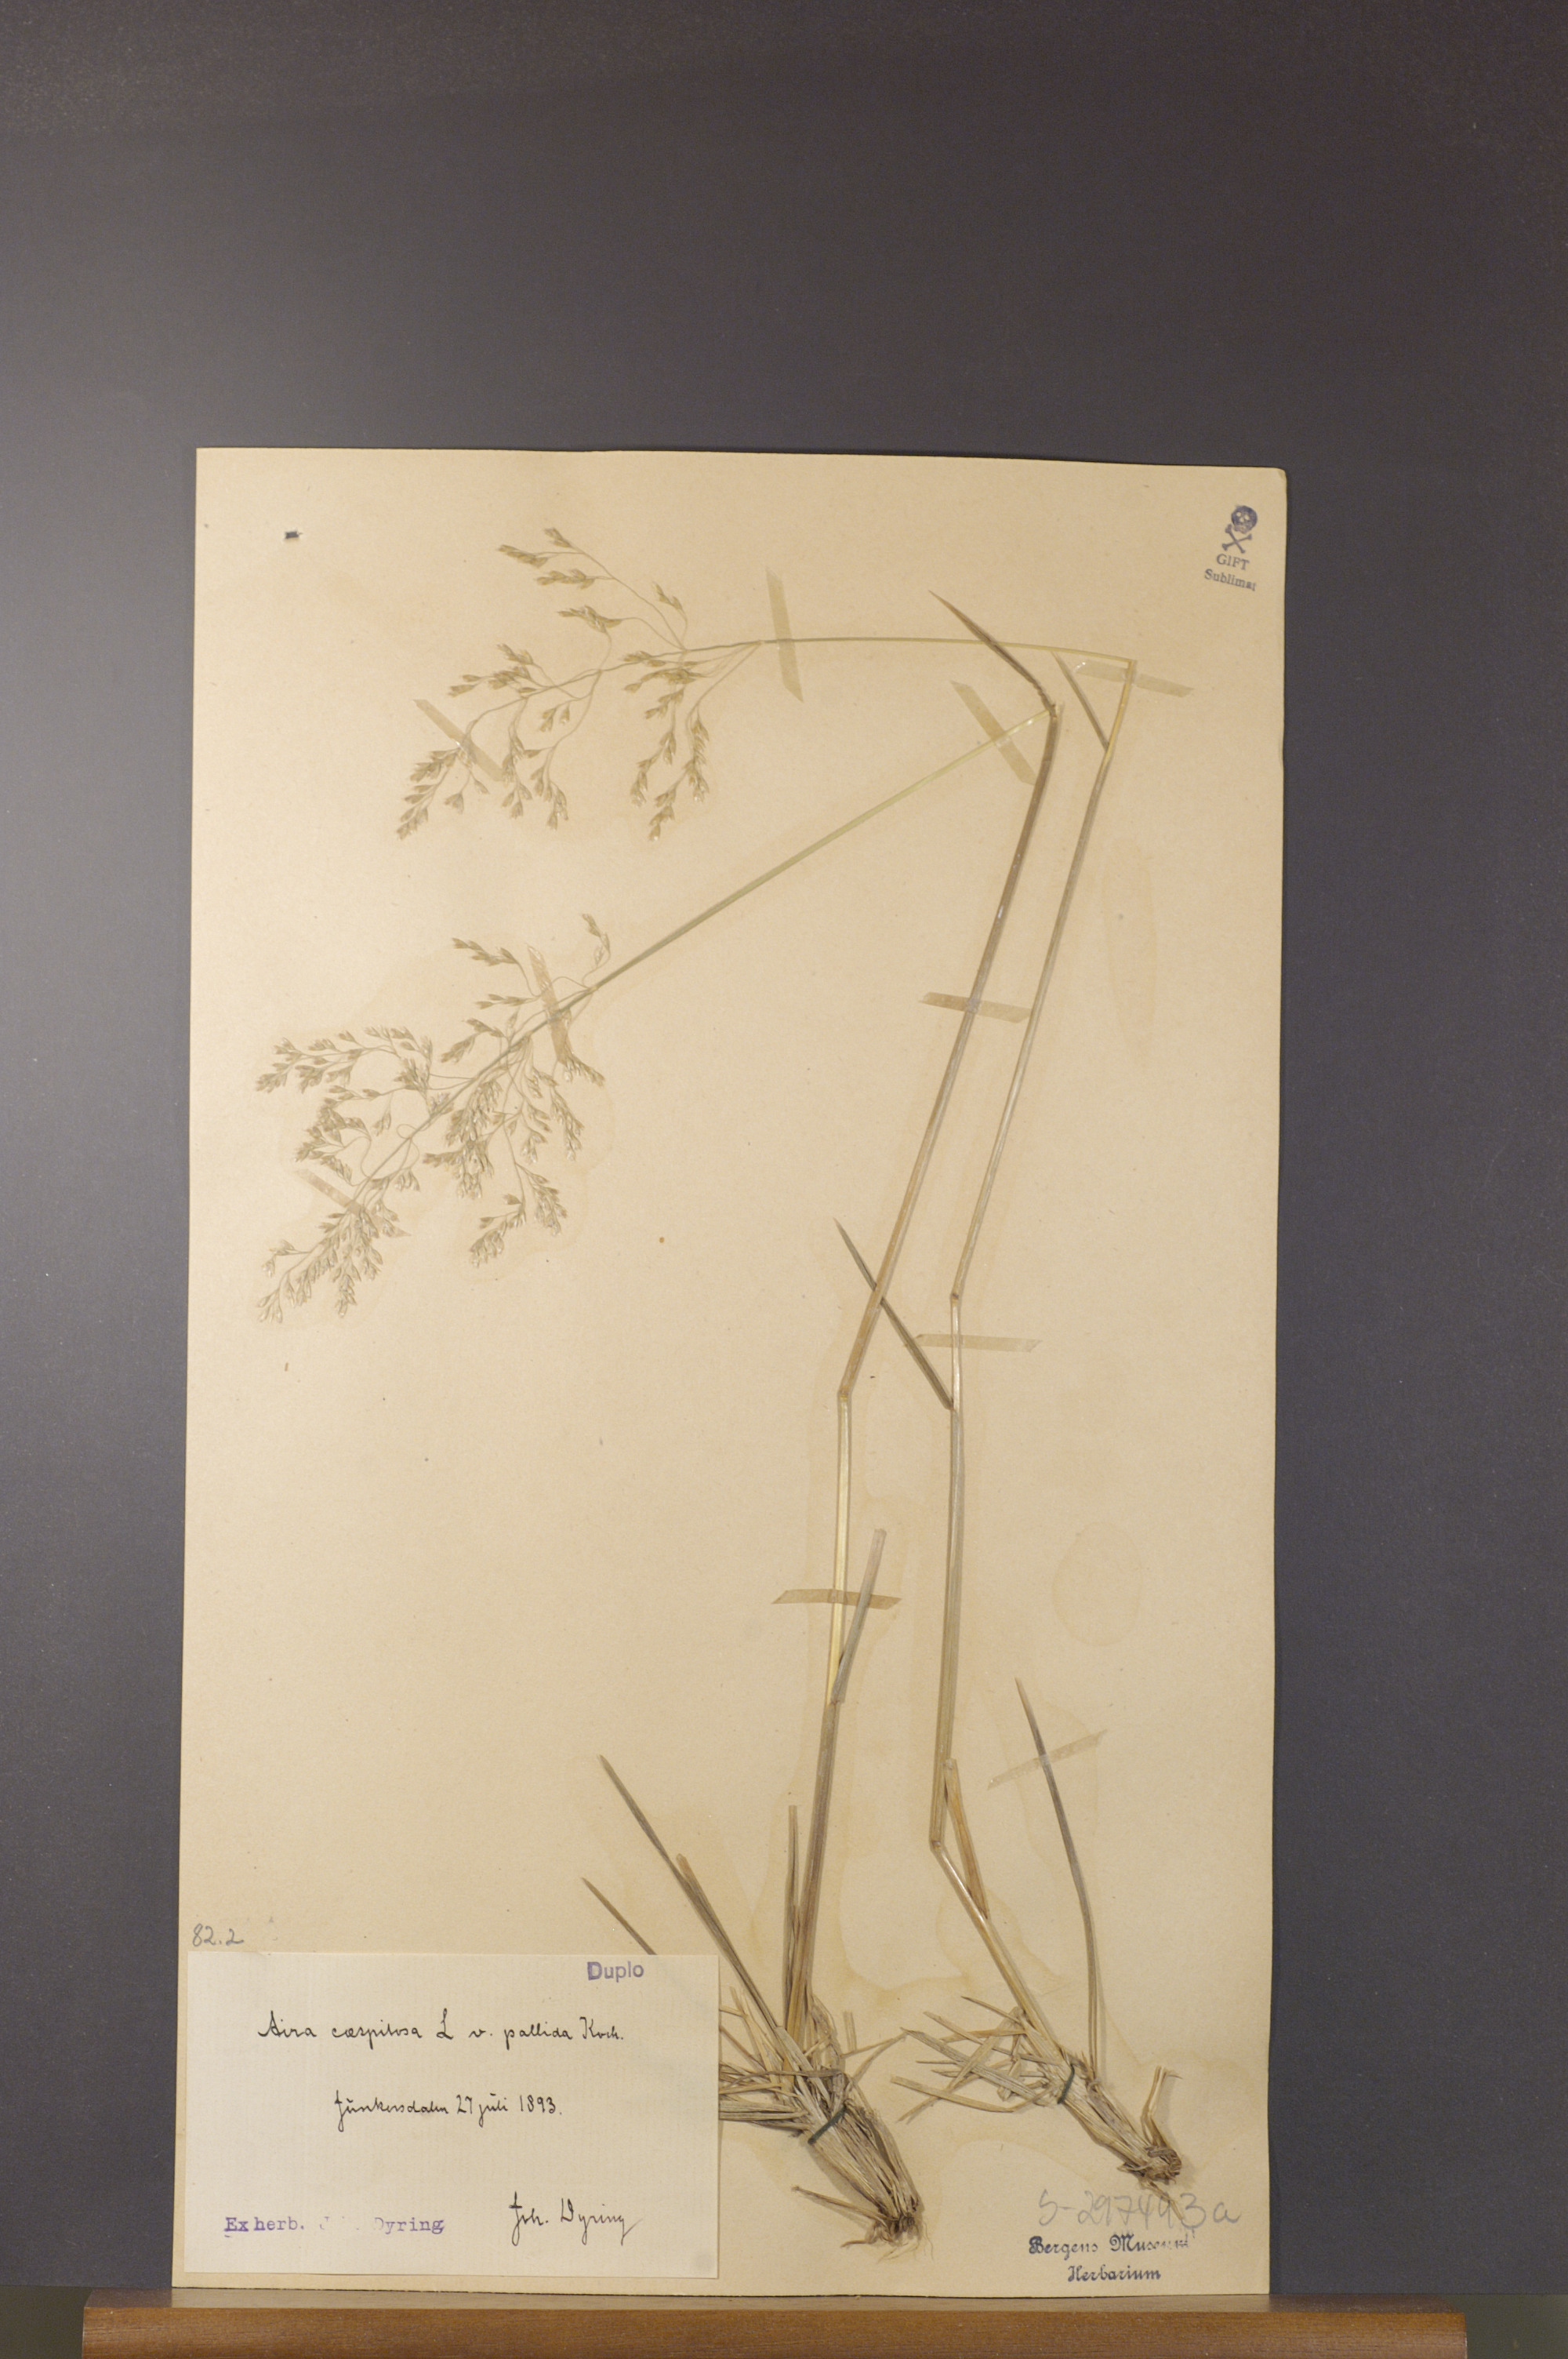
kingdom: Plantae
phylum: Tracheophyta
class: Liliopsida
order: Poales
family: Poaceae
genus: Deschampsia
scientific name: Deschampsia cespitosa
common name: Tufted hair-grass
